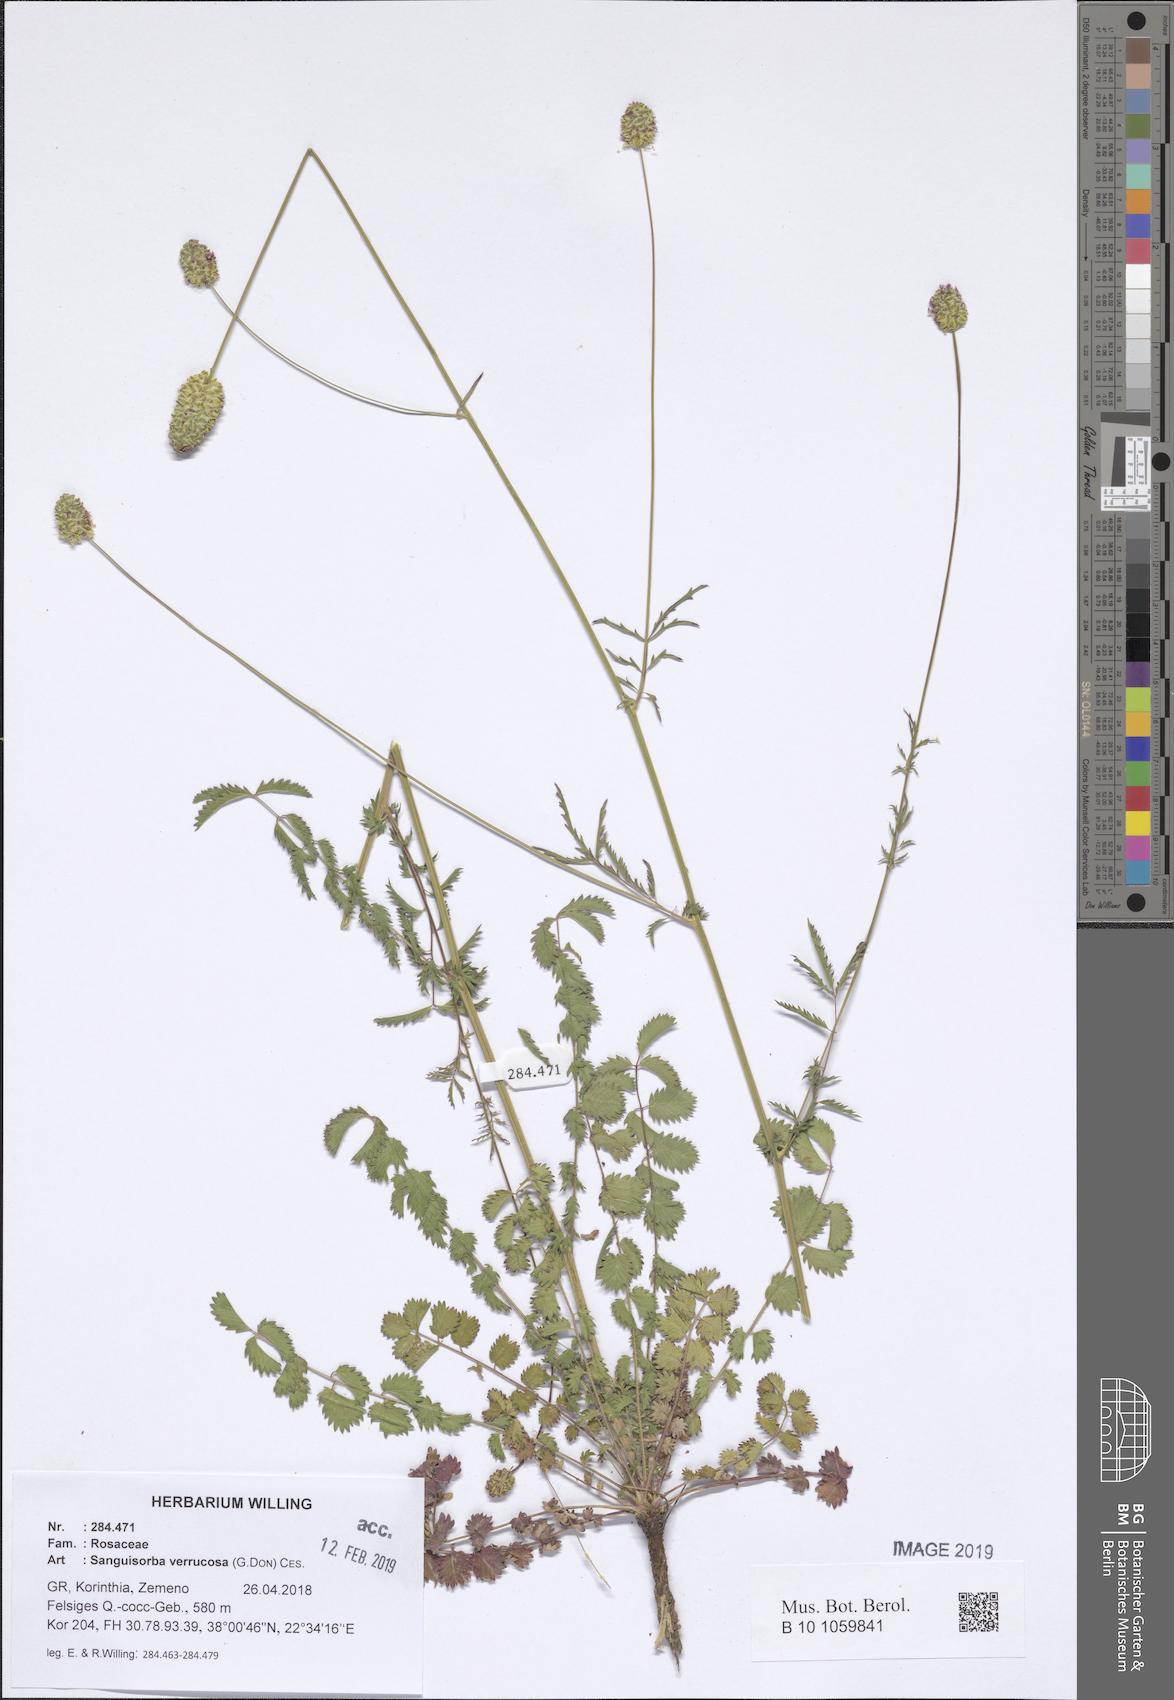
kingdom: Plantae
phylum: Tracheophyta
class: Magnoliopsida
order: Rosales
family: Rosaceae
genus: Poterium
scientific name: Poterium verrucosum
